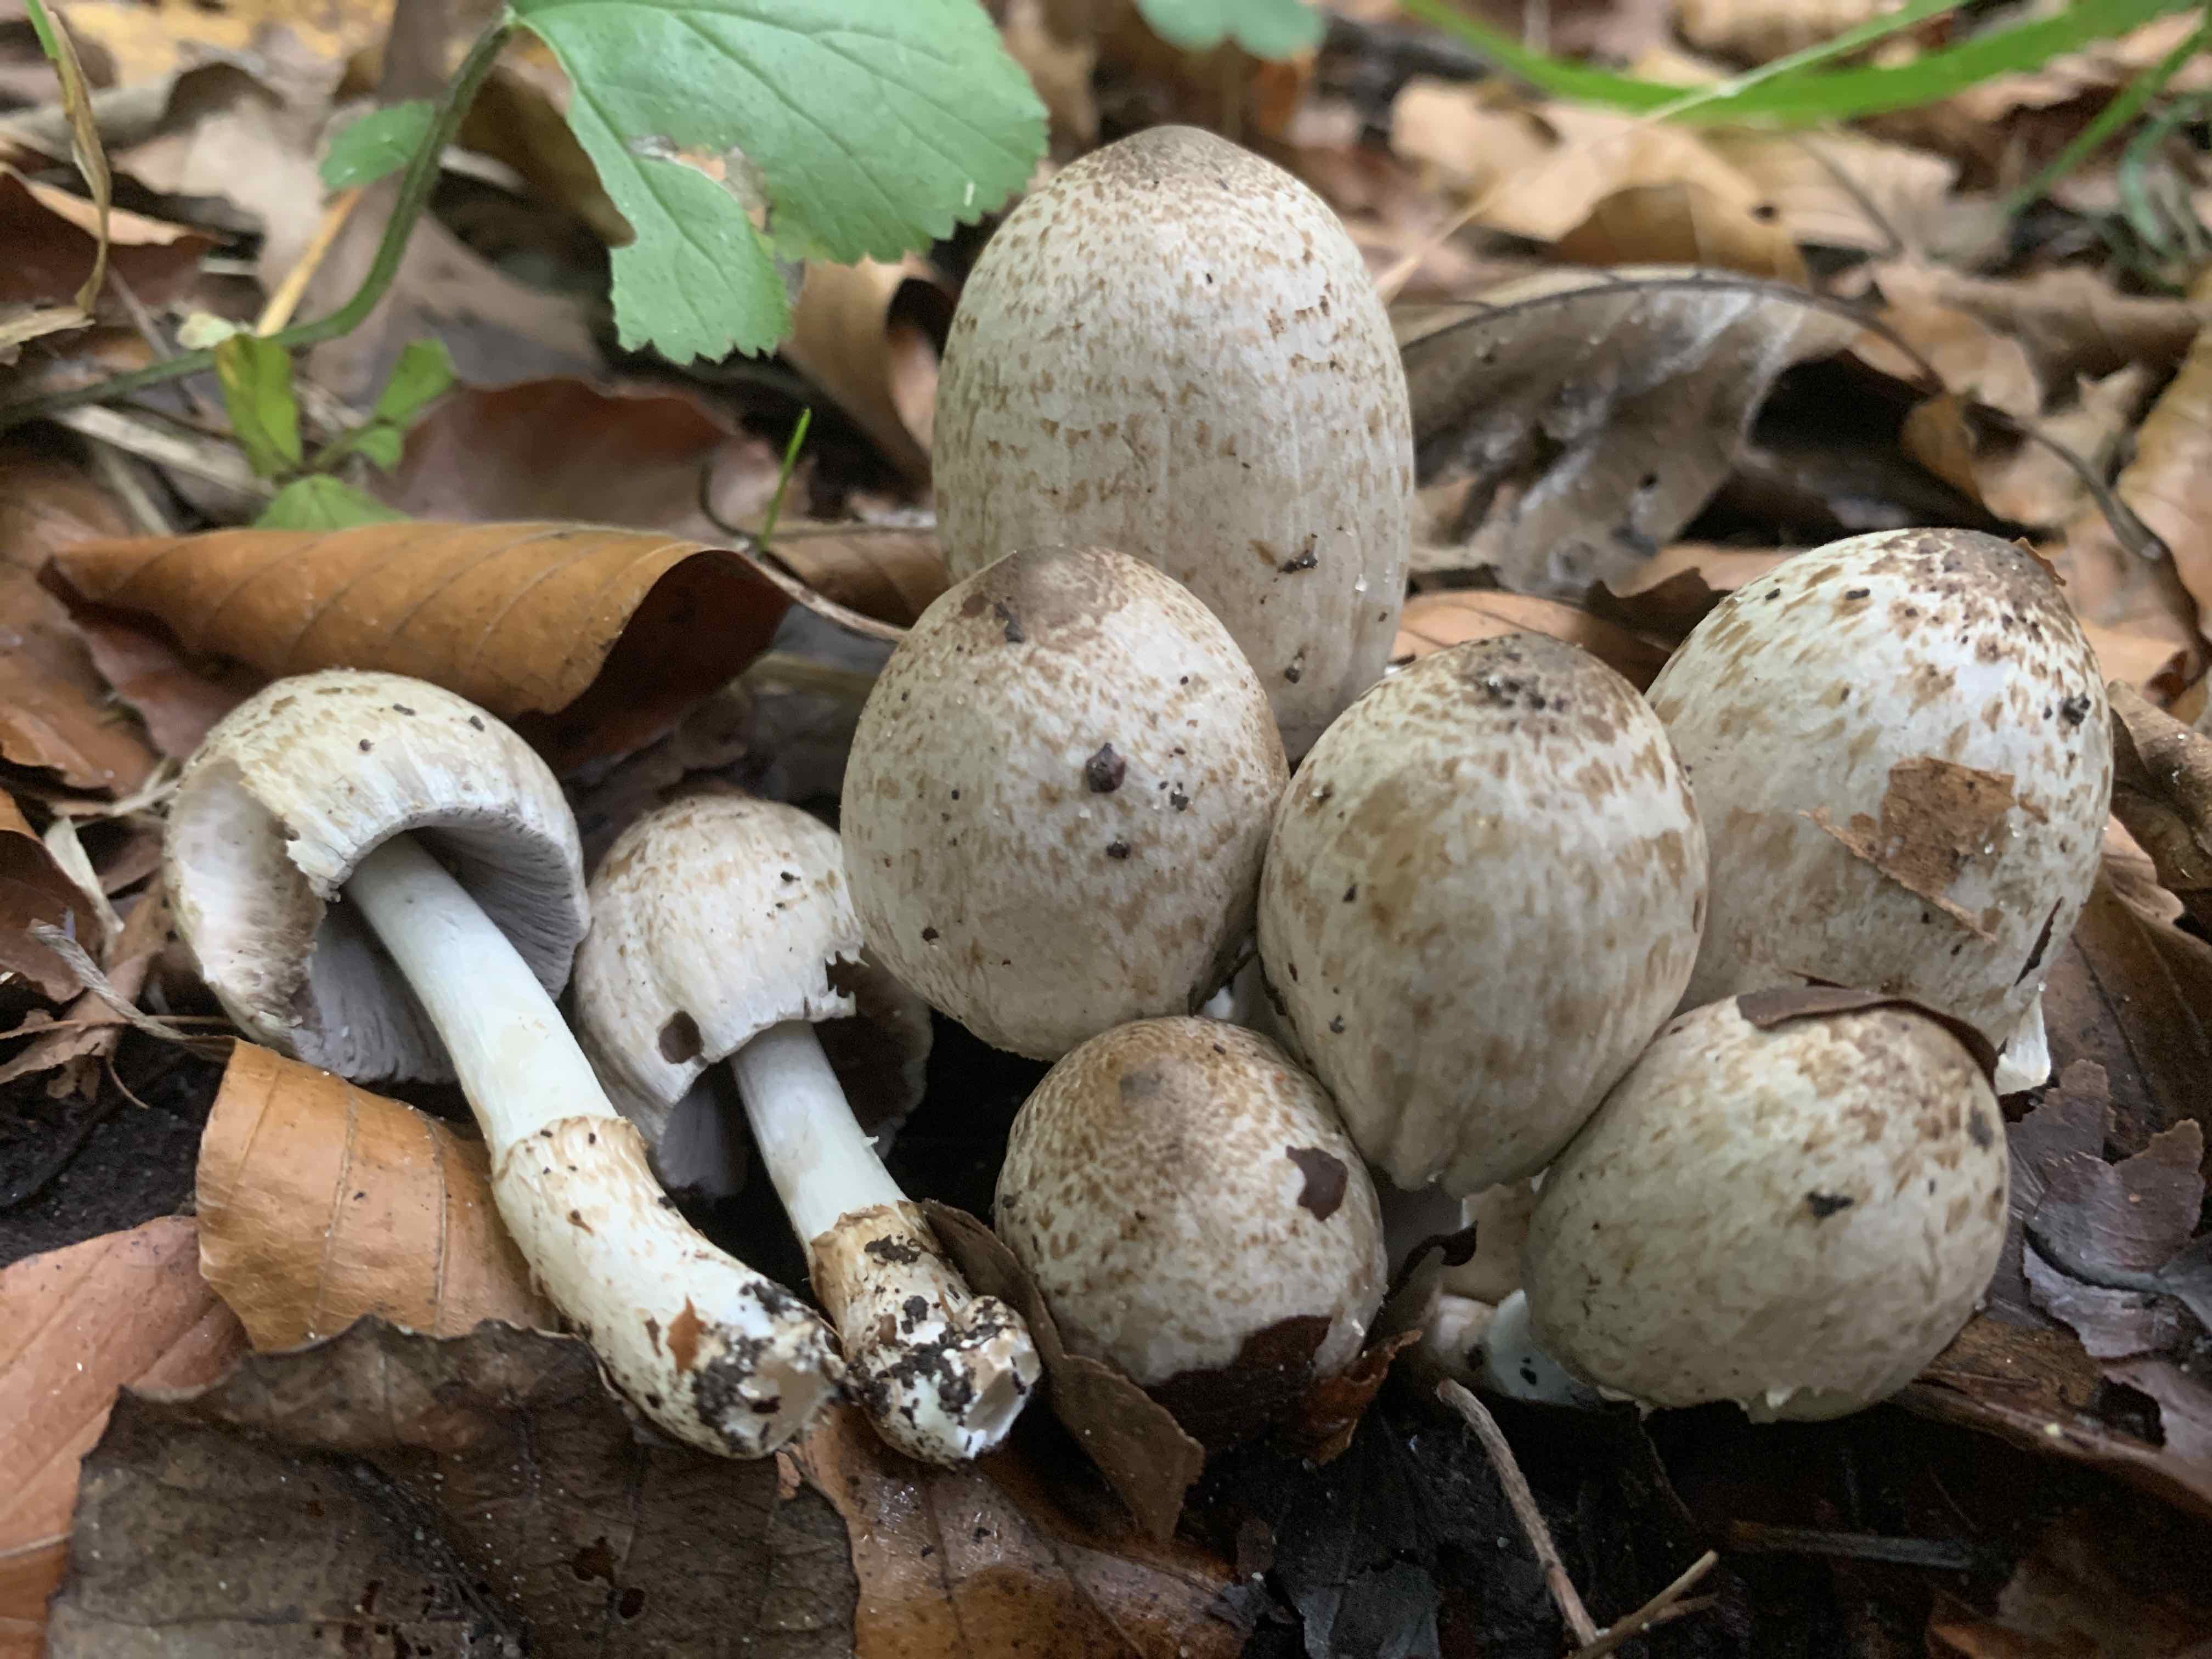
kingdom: Fungi
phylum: Basidiomycota
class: Agaricomycetes
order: Agaricales
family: Psathyrellaceae
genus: Coprinopsis
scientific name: Coprinopsis romagnesiana
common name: brunskællet blækhat
